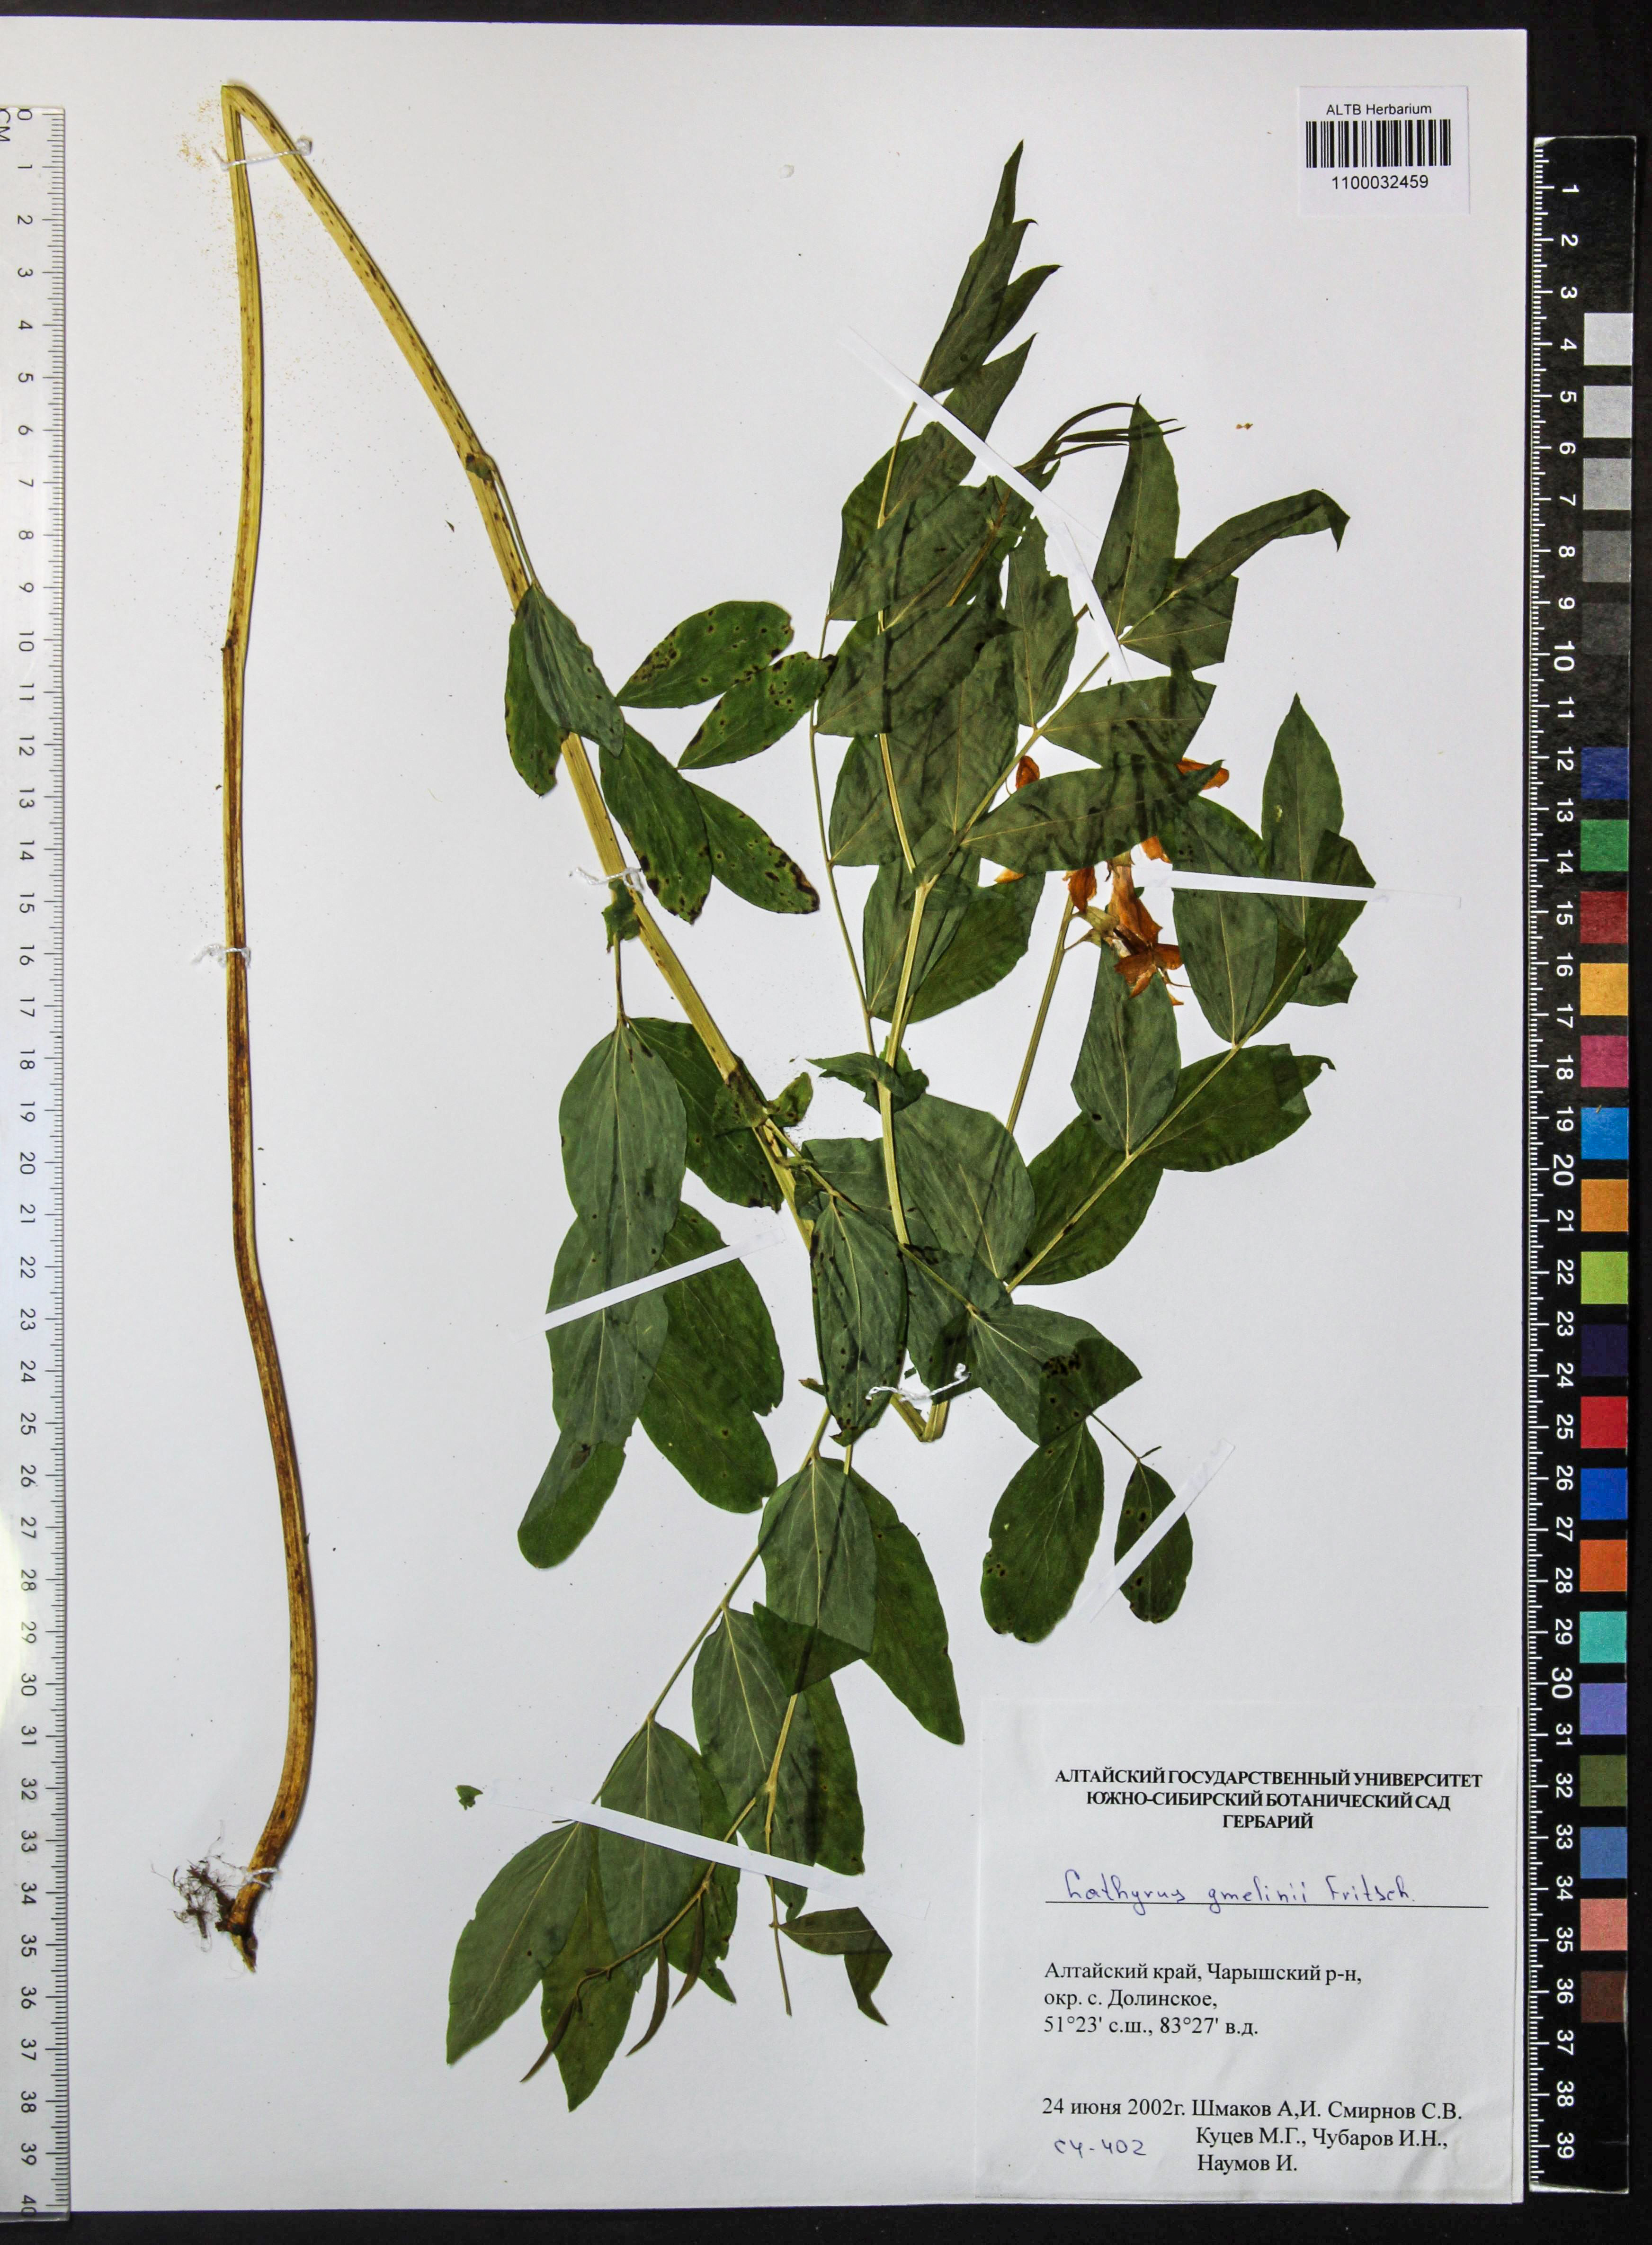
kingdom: Plantae
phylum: Tracheophyta
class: Magnoliopsida
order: Fabales
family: Fabaceae
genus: Lathyrus
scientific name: Lathyrus gmelinii
